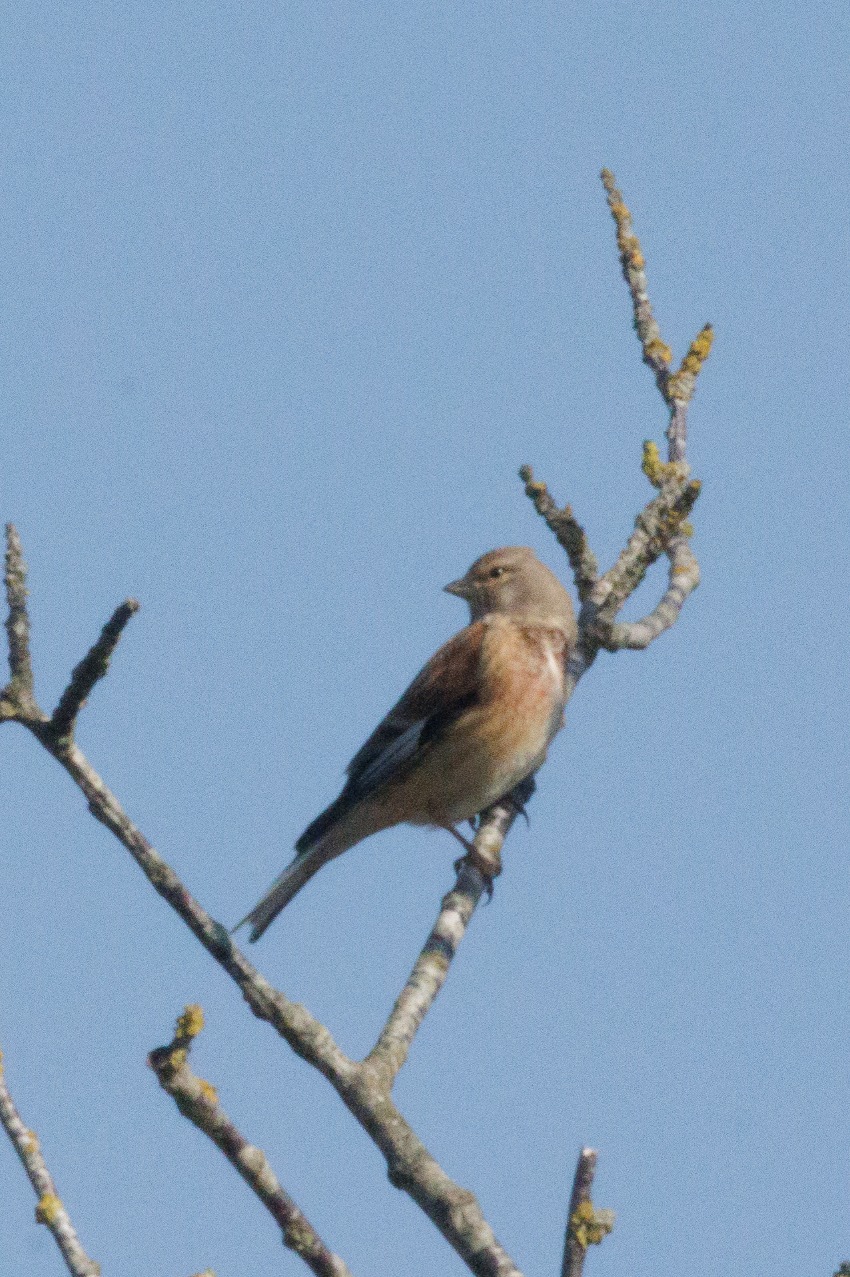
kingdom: Animalia
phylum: Chordata
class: Aves
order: Passeriformes
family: Fringillidae
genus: Linaria
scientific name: Linaria cannabina
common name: Tornirisk
